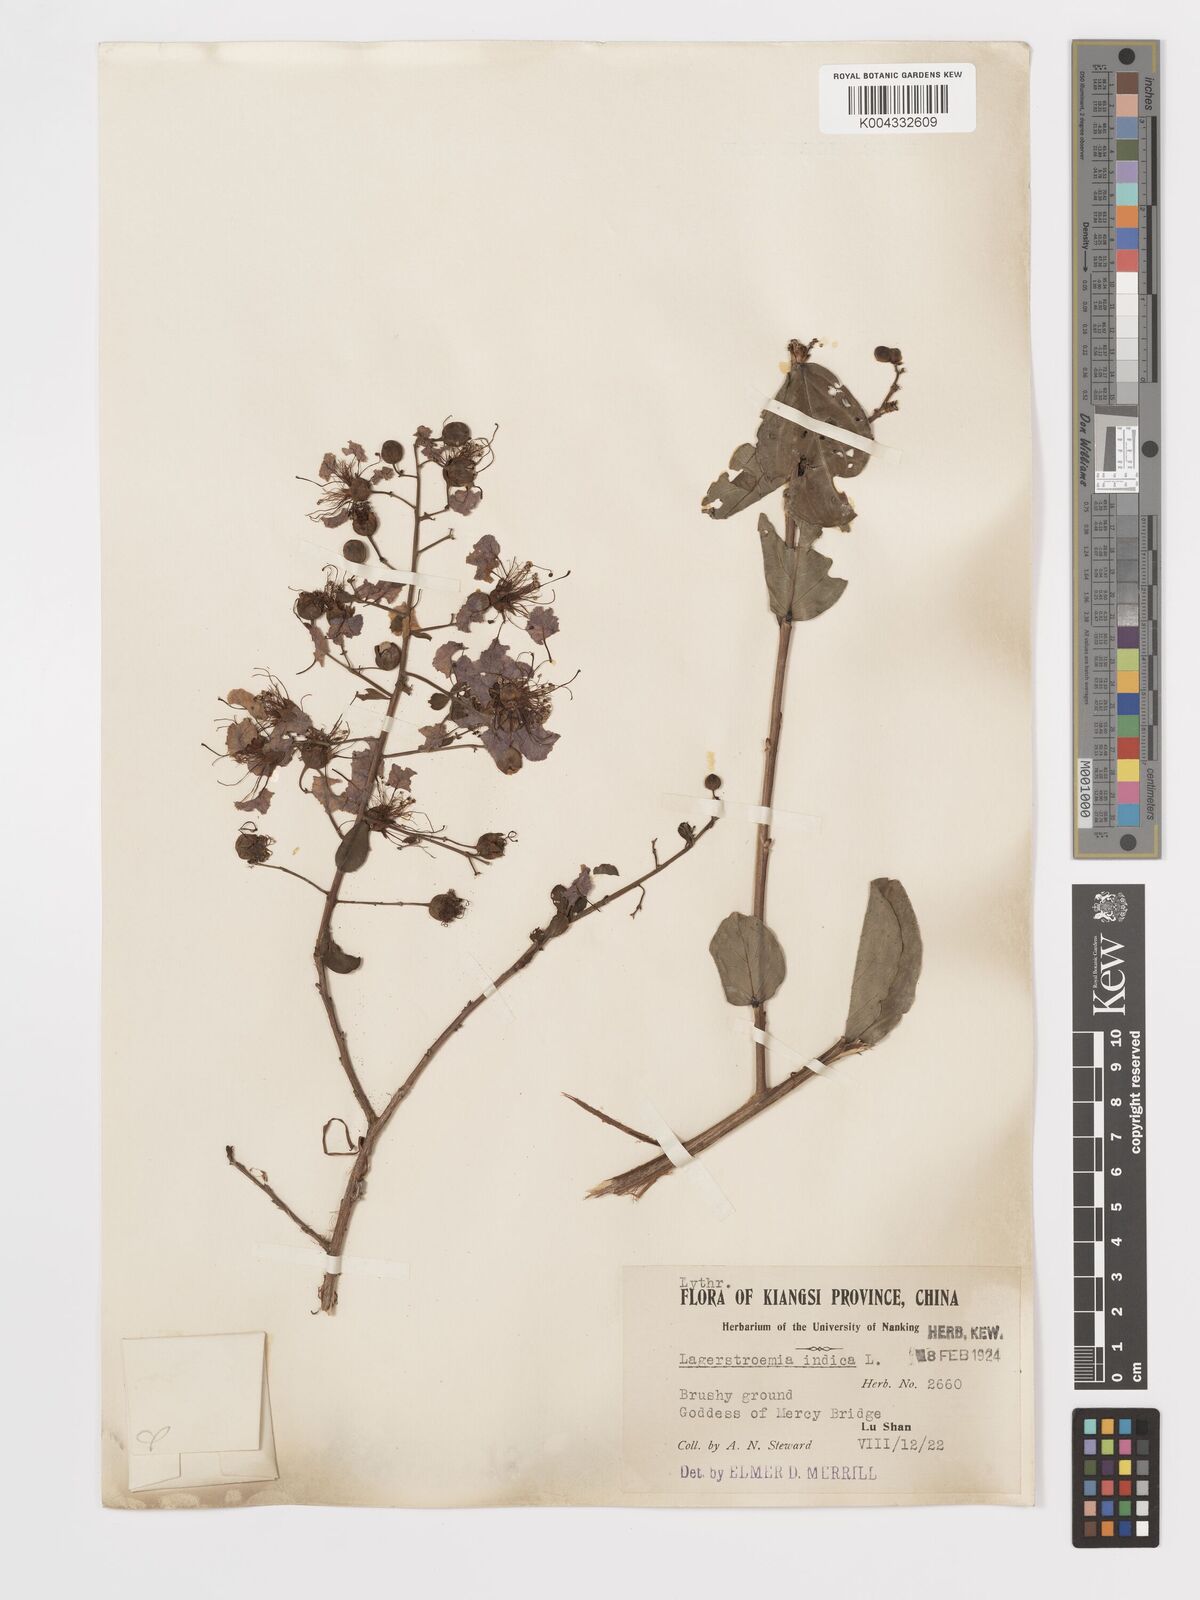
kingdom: Plantae
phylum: Tracheophyta
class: Magnoliopsida
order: Myrtales
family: Lythraceae
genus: Lagerstroemia
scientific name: Lagerstroemia indica
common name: Crape-myrtle
